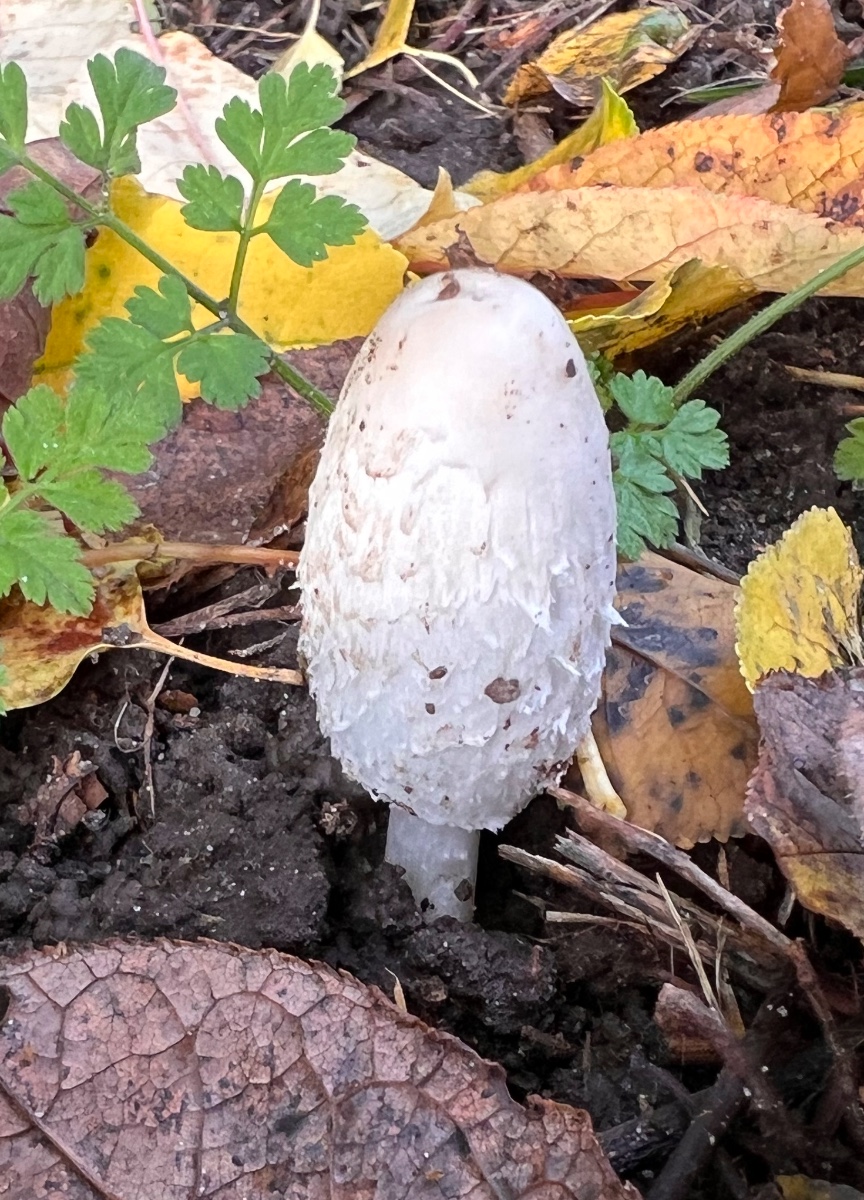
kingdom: Fungi
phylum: Basidiomycota
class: Agaricomycetes
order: Agaricales
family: Agaricaceae
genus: Coprinus
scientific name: Coprinus comatus
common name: stor parykhat
